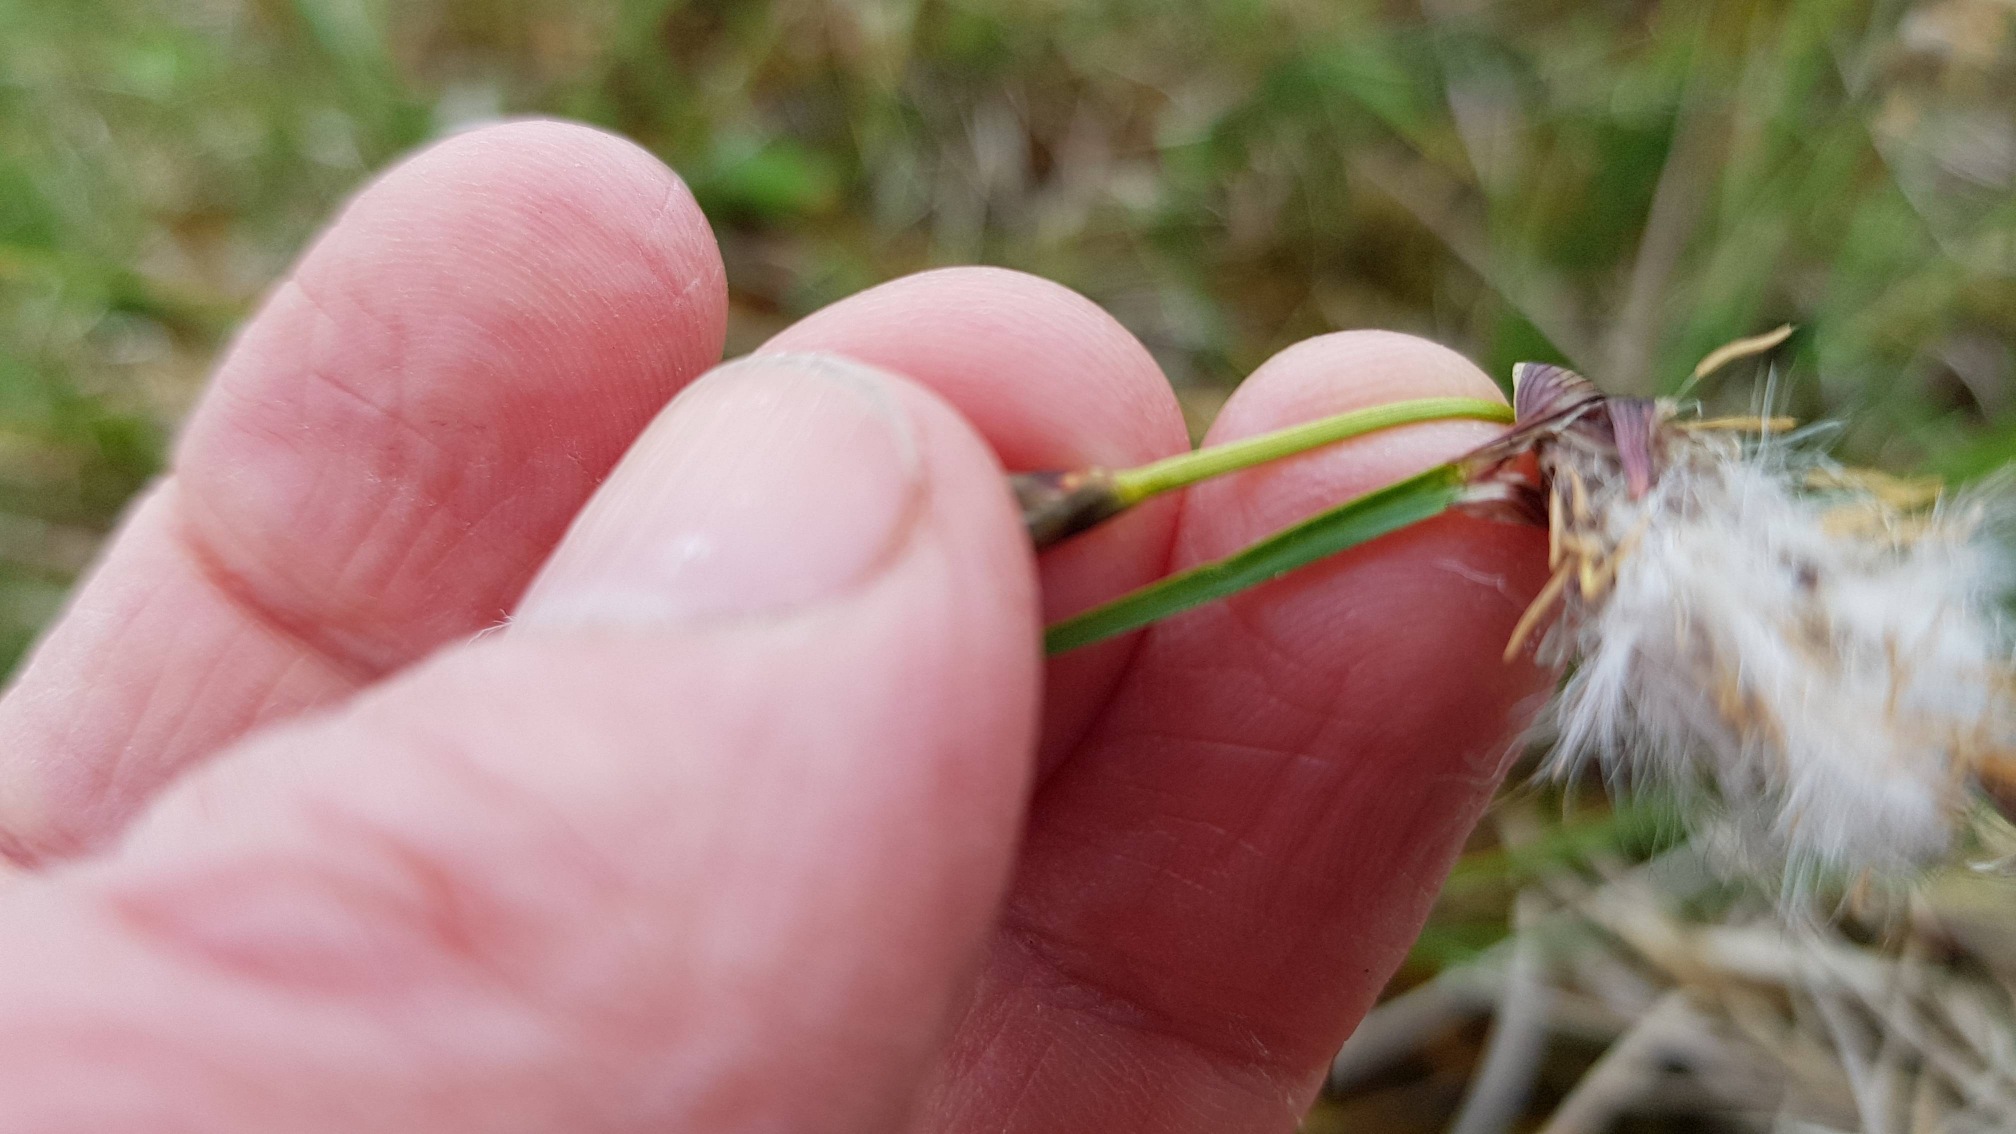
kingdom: Plantae
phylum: Tracheophyta
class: Liliopsida
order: Poales
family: Cyperaceae
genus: Eriophorum
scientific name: Eriophorum angustifolium
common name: Smalbladet kæruld
